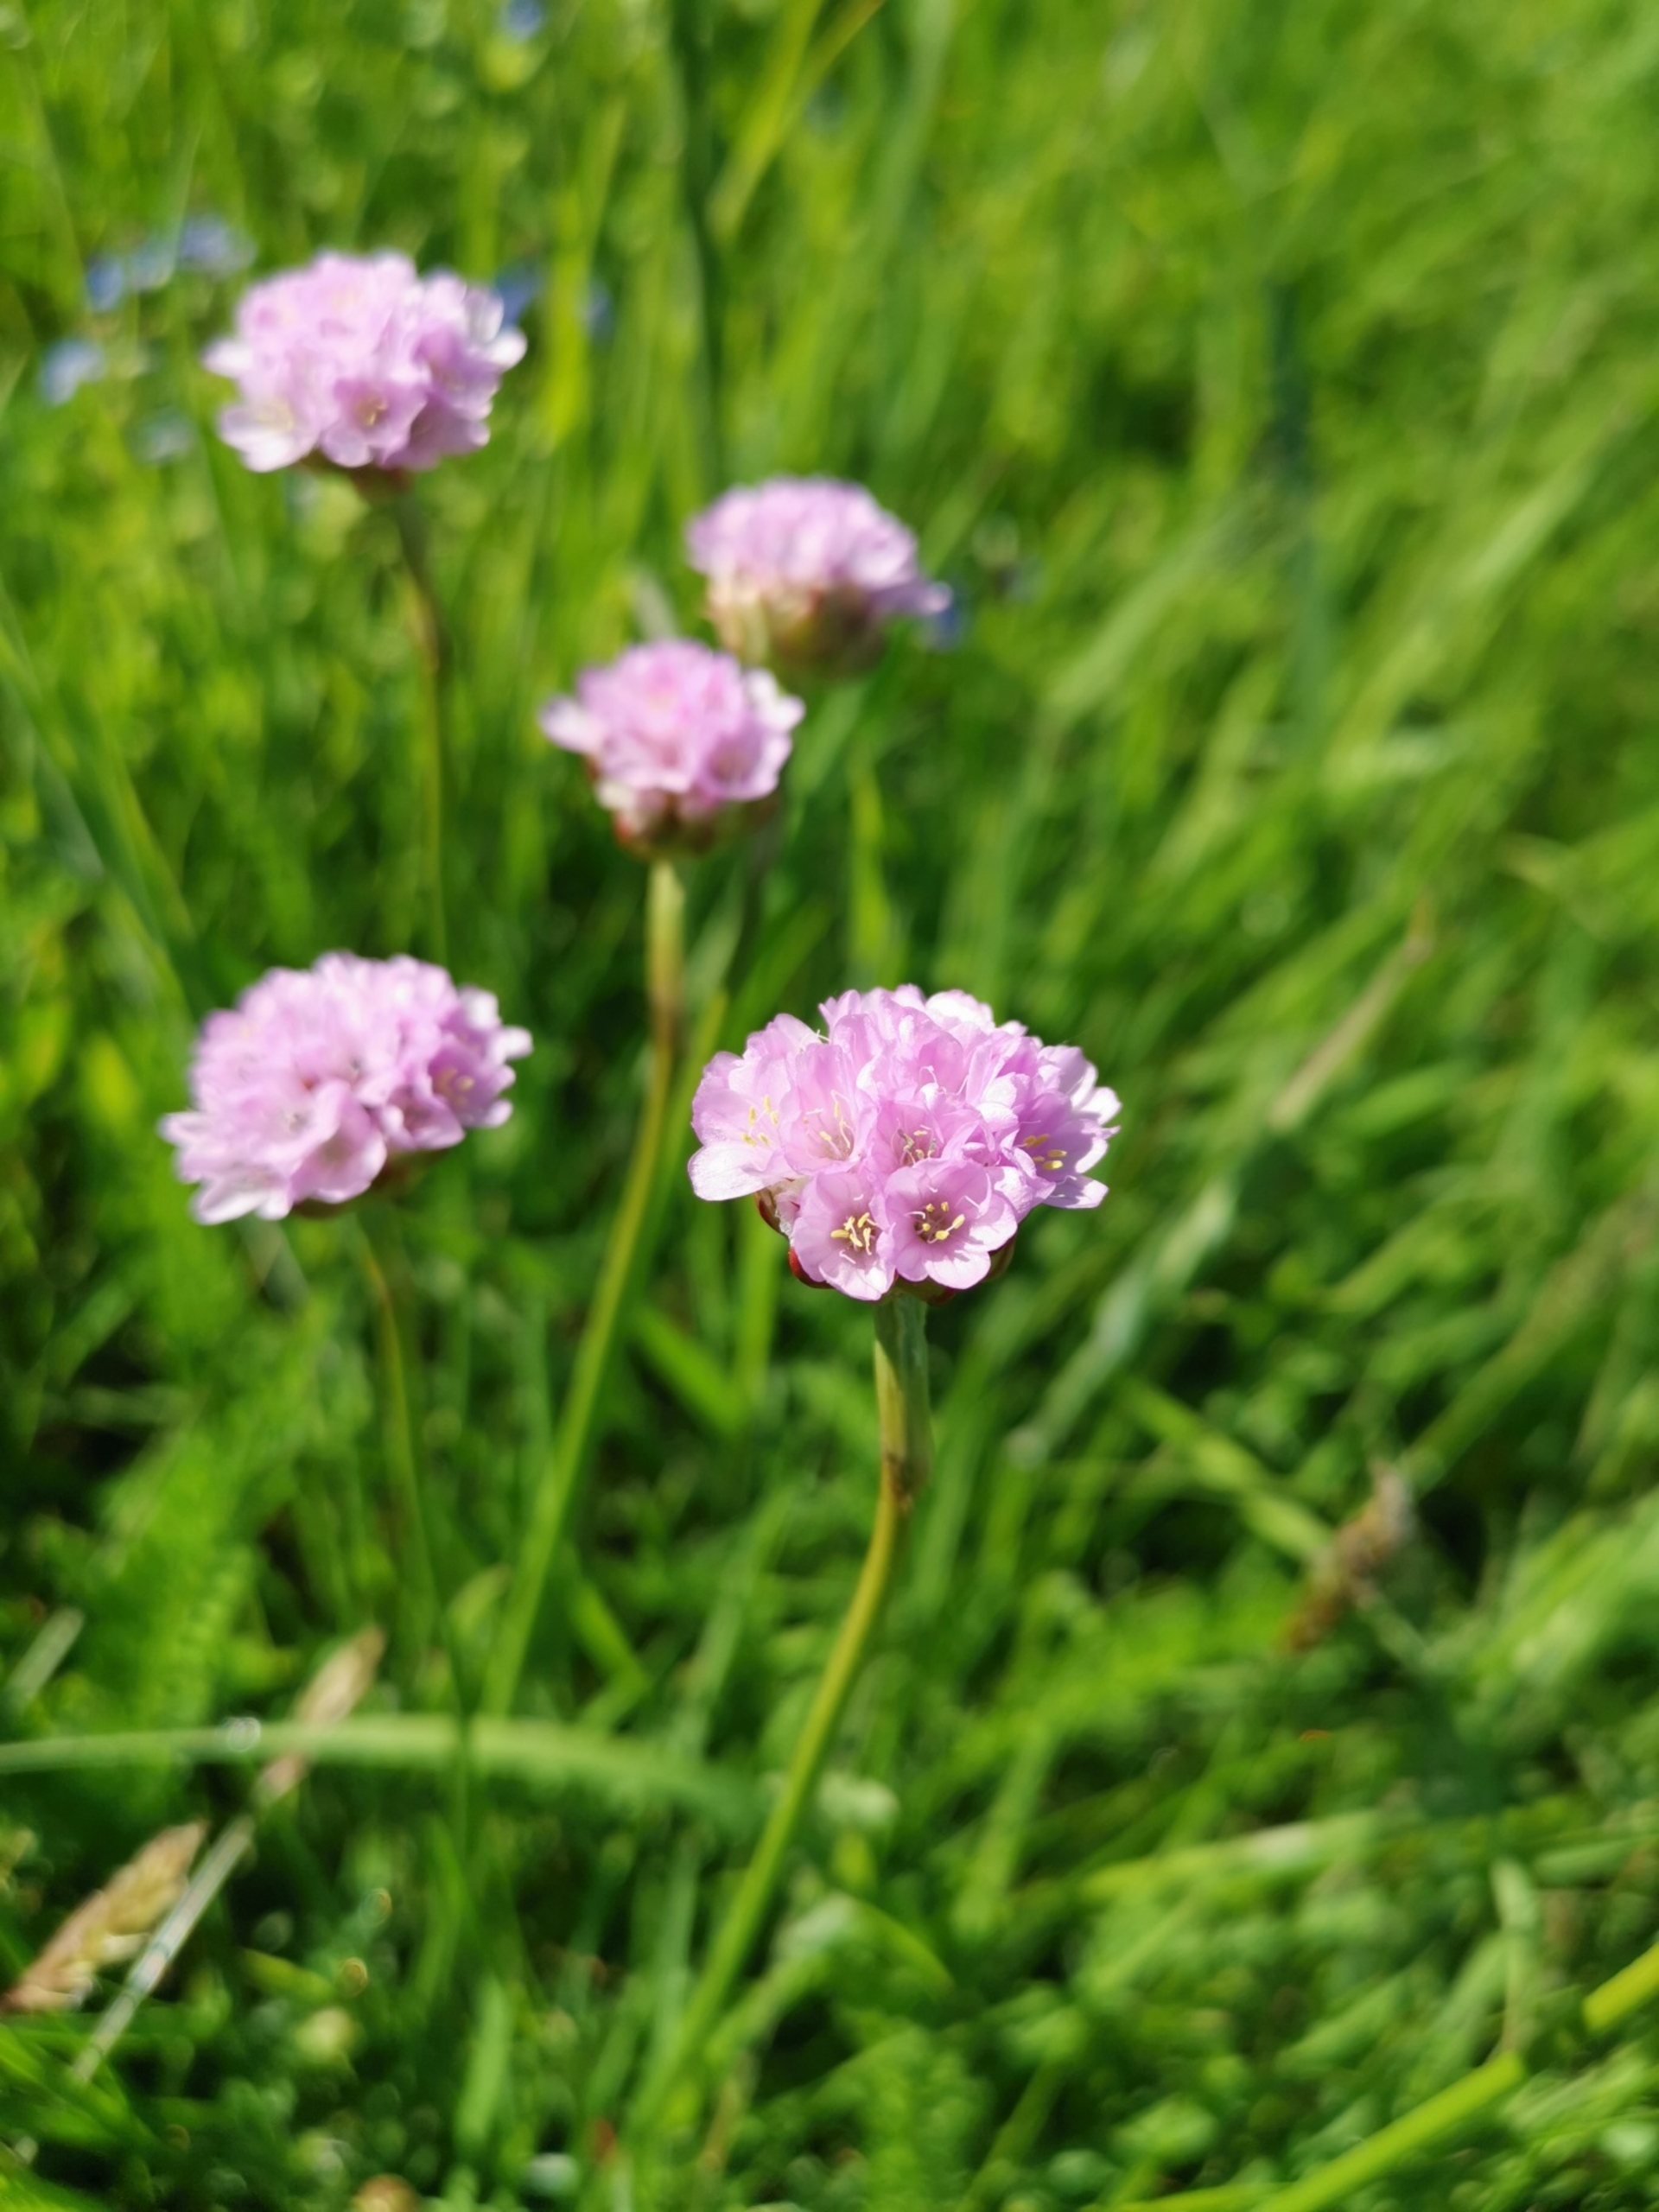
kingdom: Plantae
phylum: Tracheophyta
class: Magnoliopsida
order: Caryophyllales
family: Plumbaginaceae
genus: Armeria
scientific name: Armeria maritima
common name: Engelskgræs
